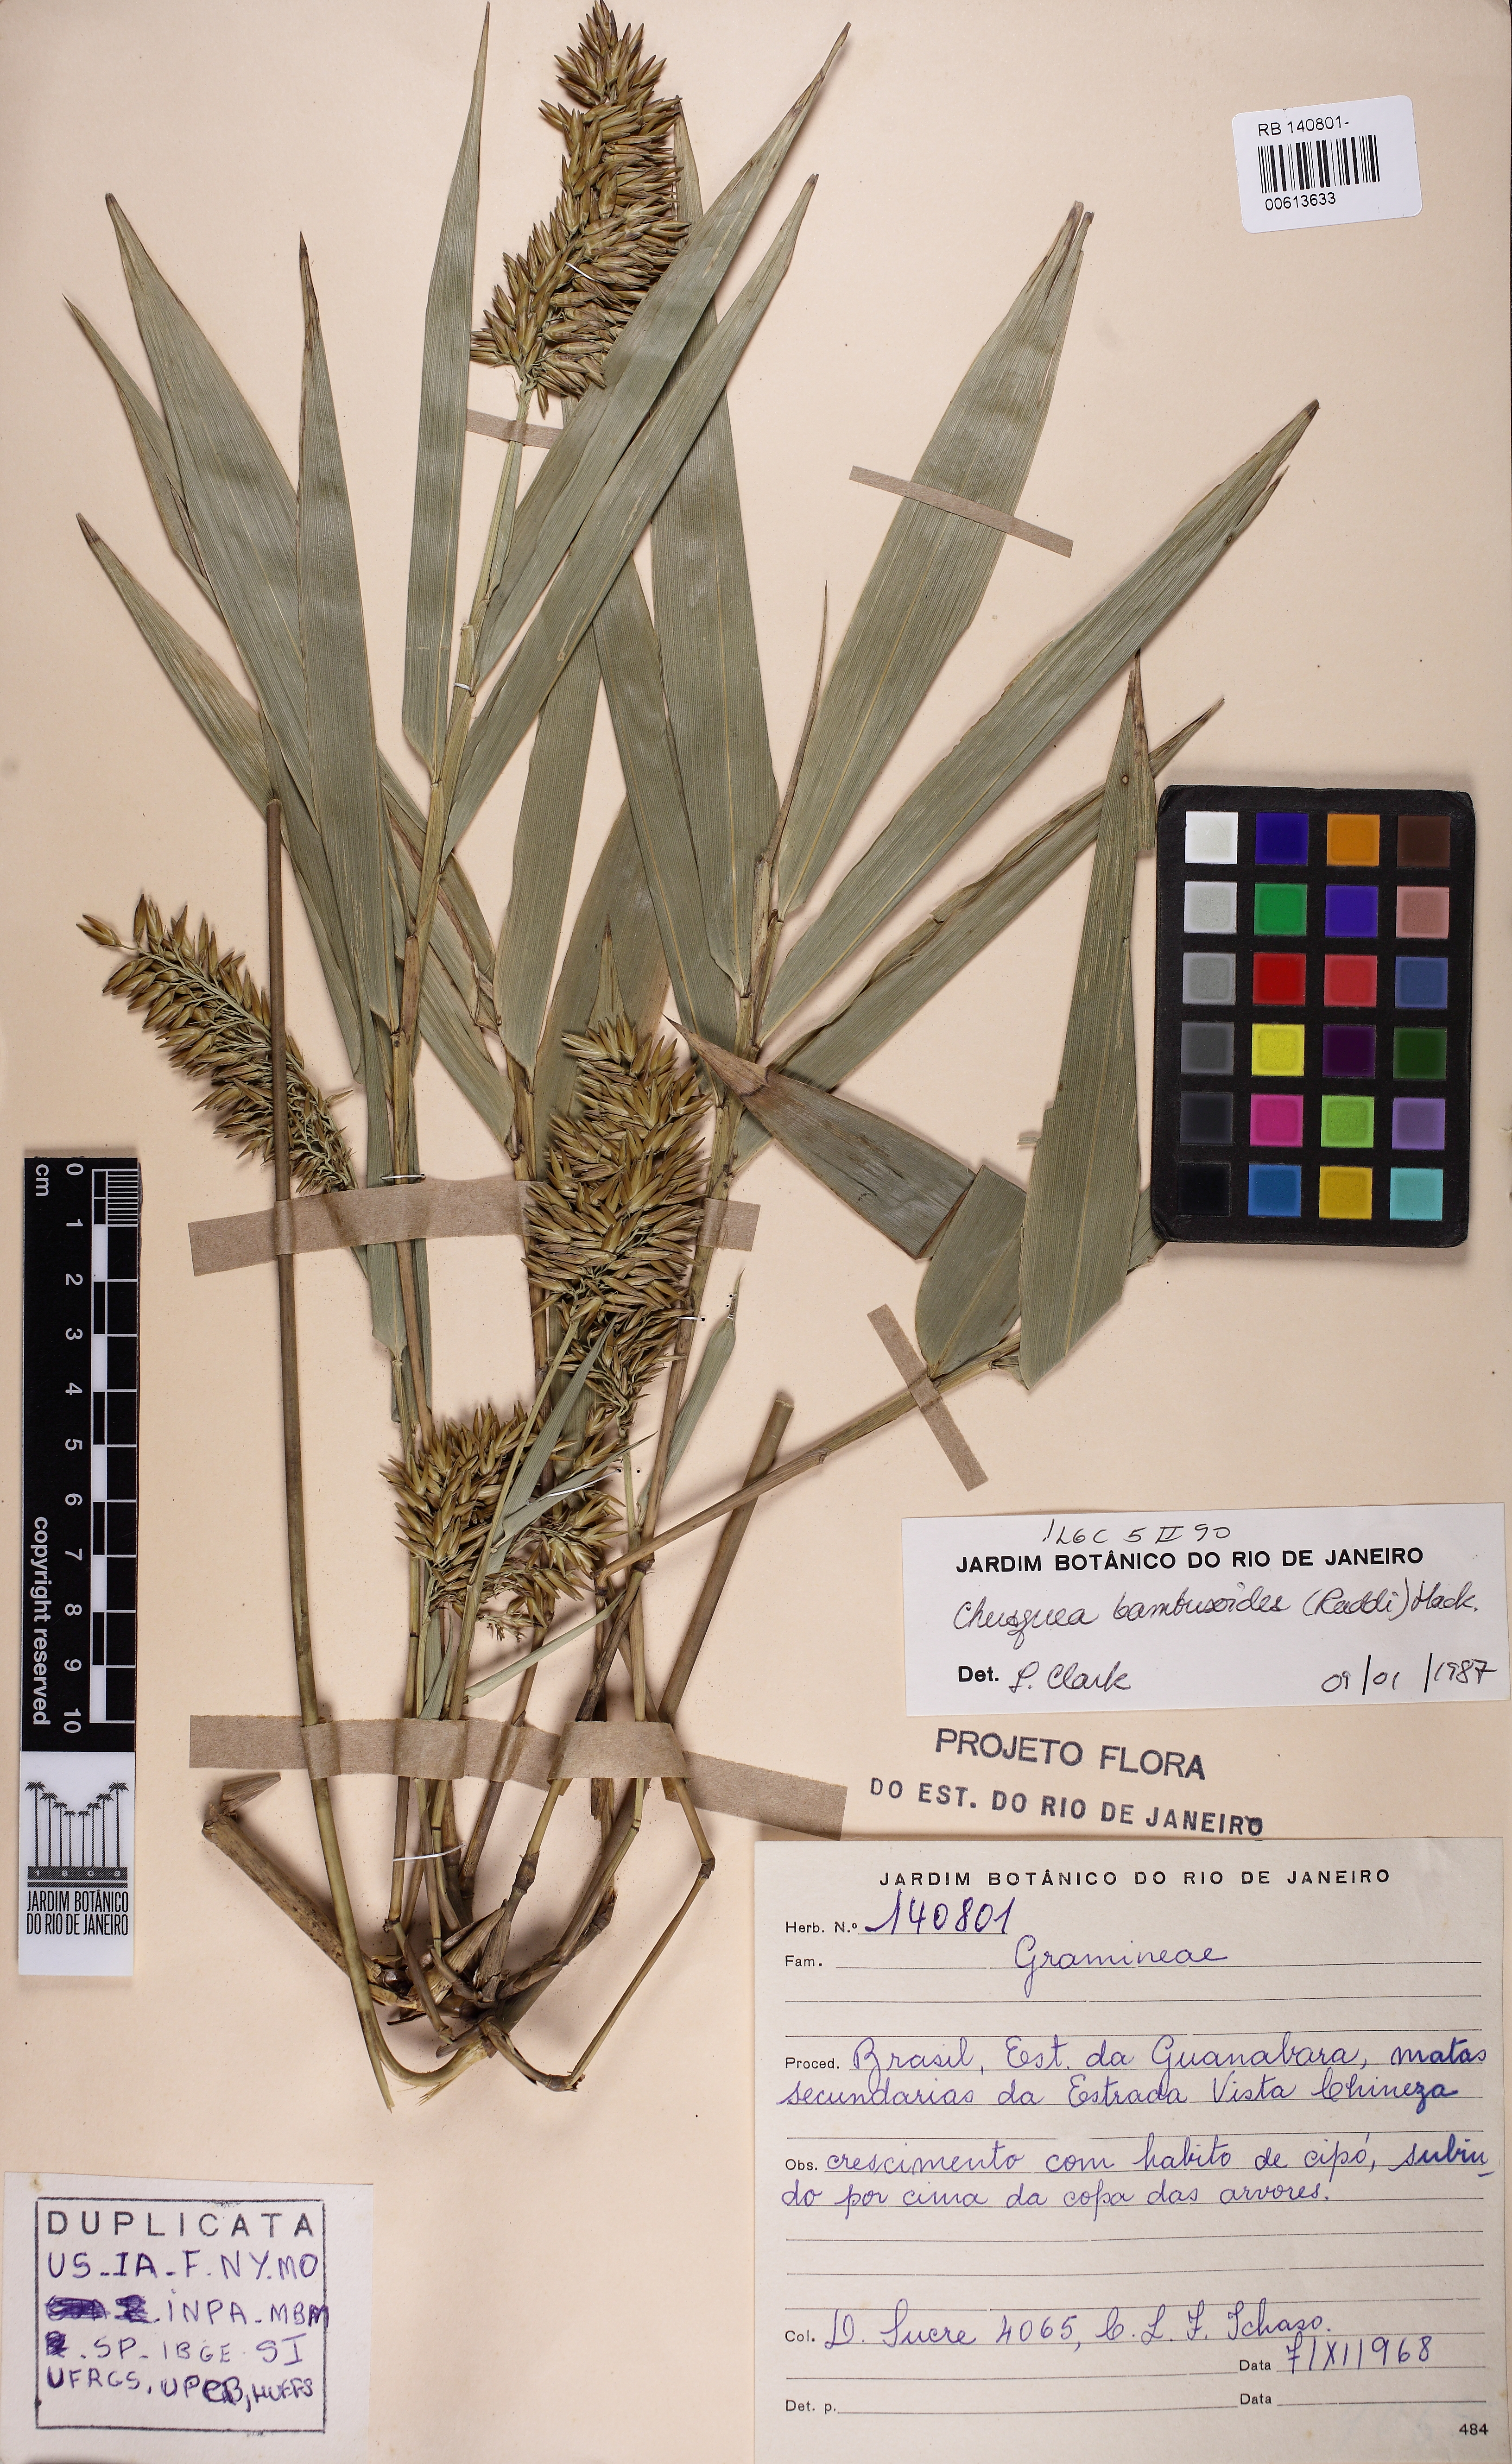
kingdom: Plantae
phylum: Tracheophyta
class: Liliopsida
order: Poales
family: Poaceae
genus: Chusquea
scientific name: Chusquea bambusoides
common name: Brazil scrambling bamboo
